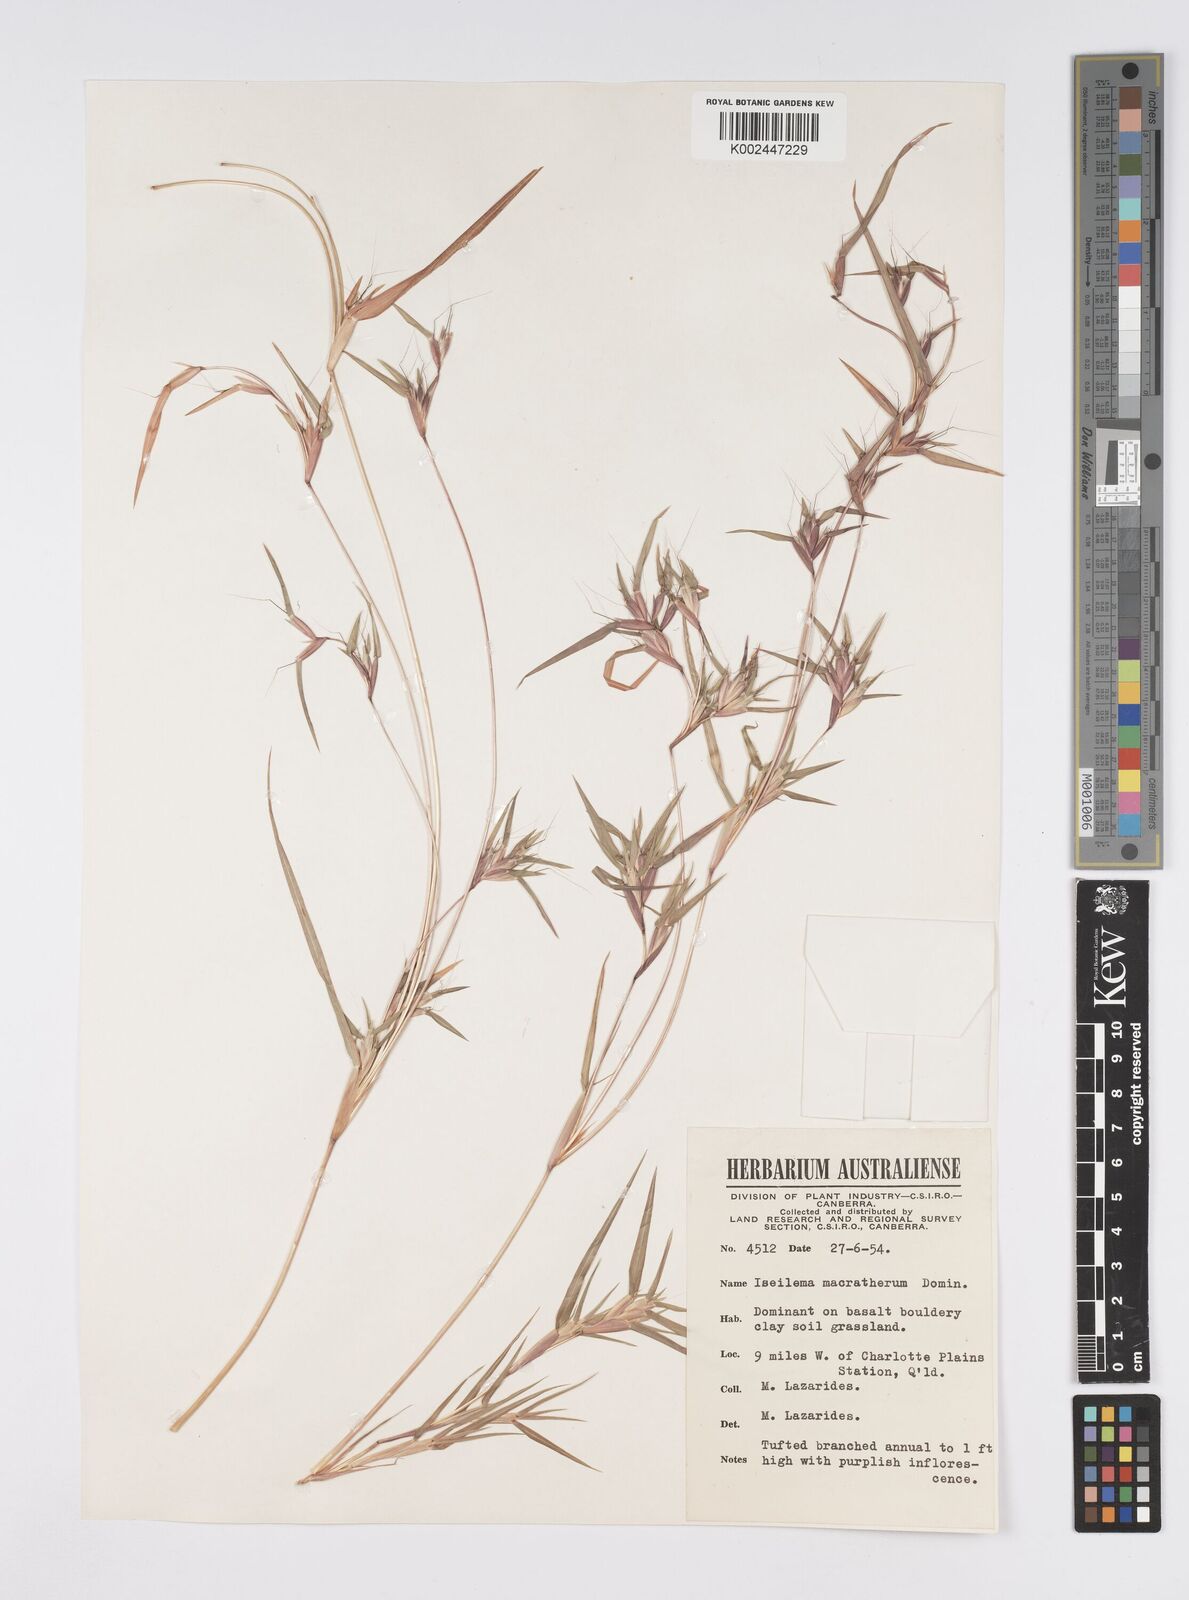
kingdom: Plantae
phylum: Tracheophyta
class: Liliopsida
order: Poales
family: Poaceae
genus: Iseilema
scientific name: Iseilema macratherum
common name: Bull flinders grass
